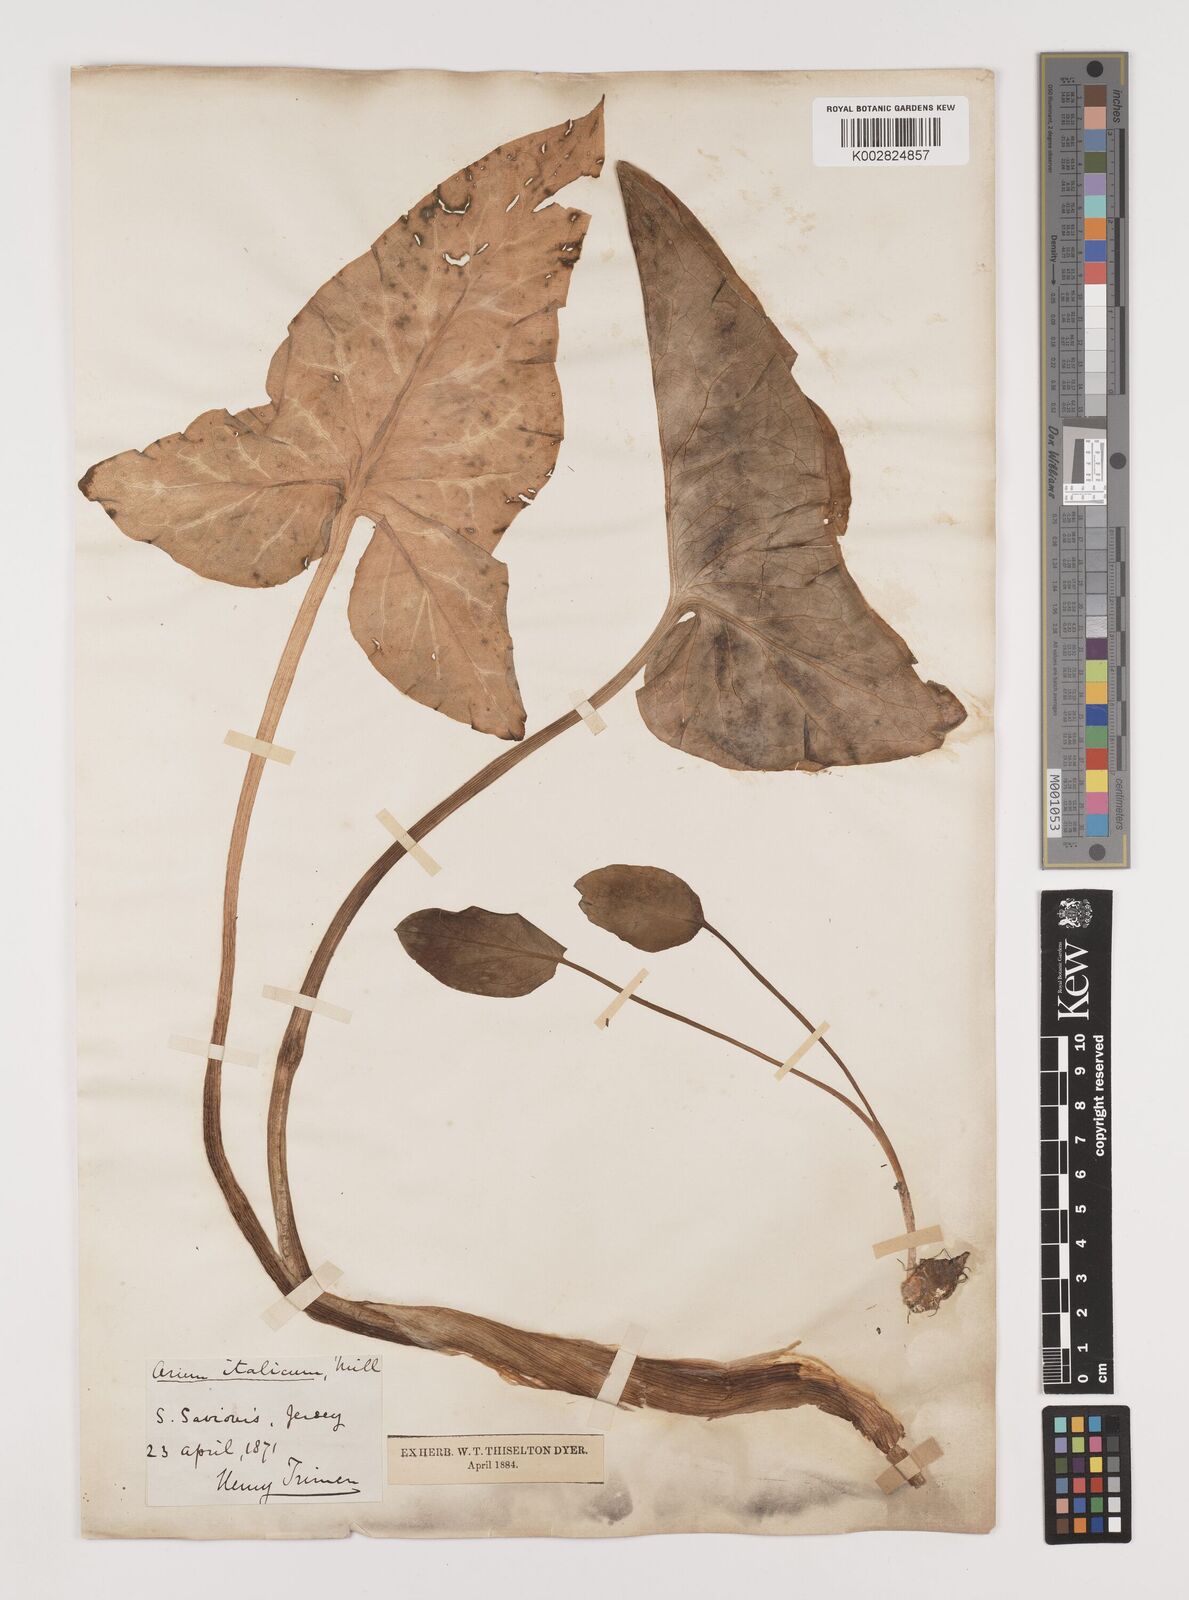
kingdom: Plantae
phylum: Tracheophyta
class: Liliopsida
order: Alismatales
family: Araceae
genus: Arum
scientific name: Arum italicum
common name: Italian lords-and-ladies
